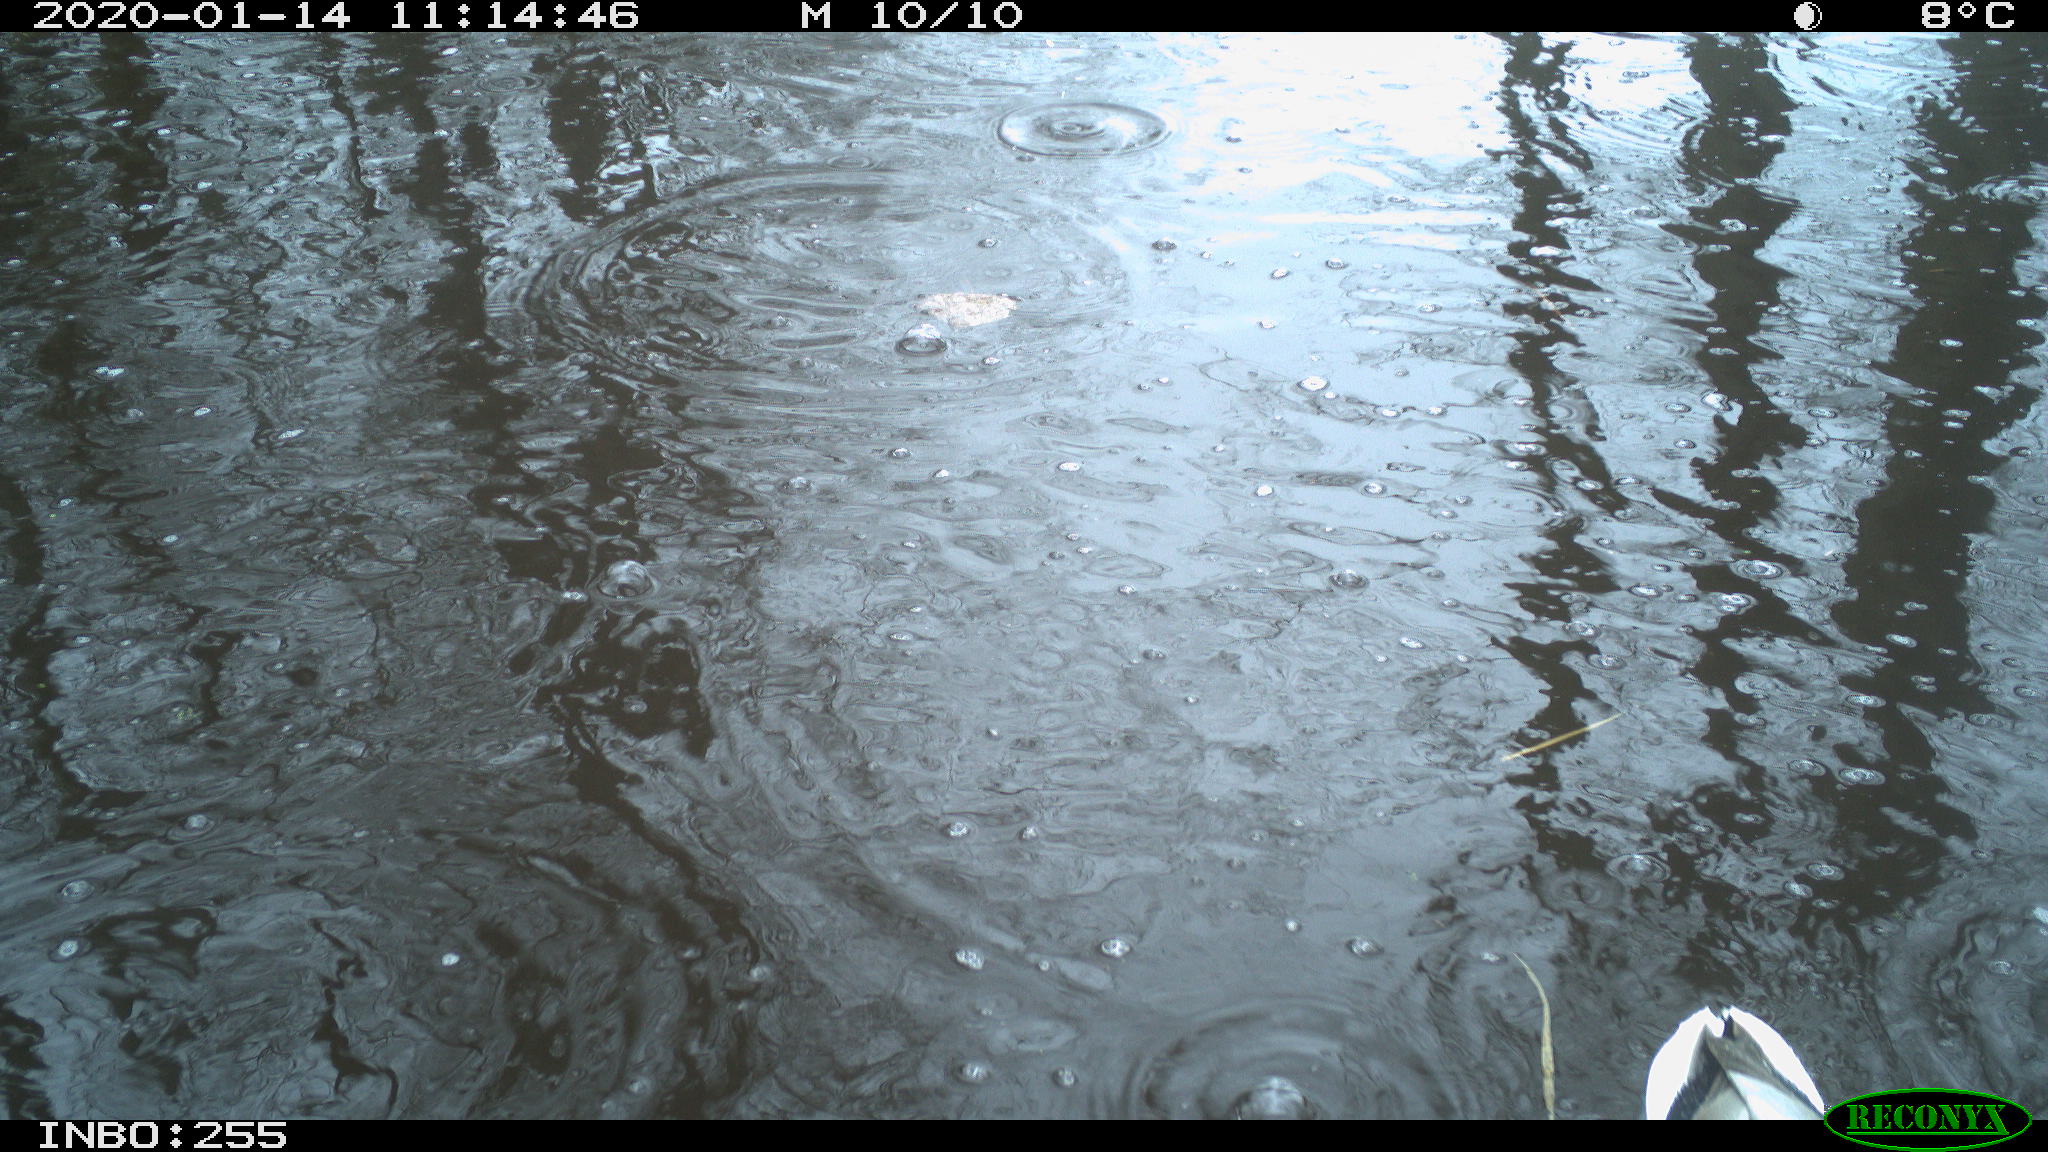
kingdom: Animalia
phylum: Chordata
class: Aves
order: Anseriformes
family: Anatidae
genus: Anas
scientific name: Anas platyrhynchos
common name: Mallard
